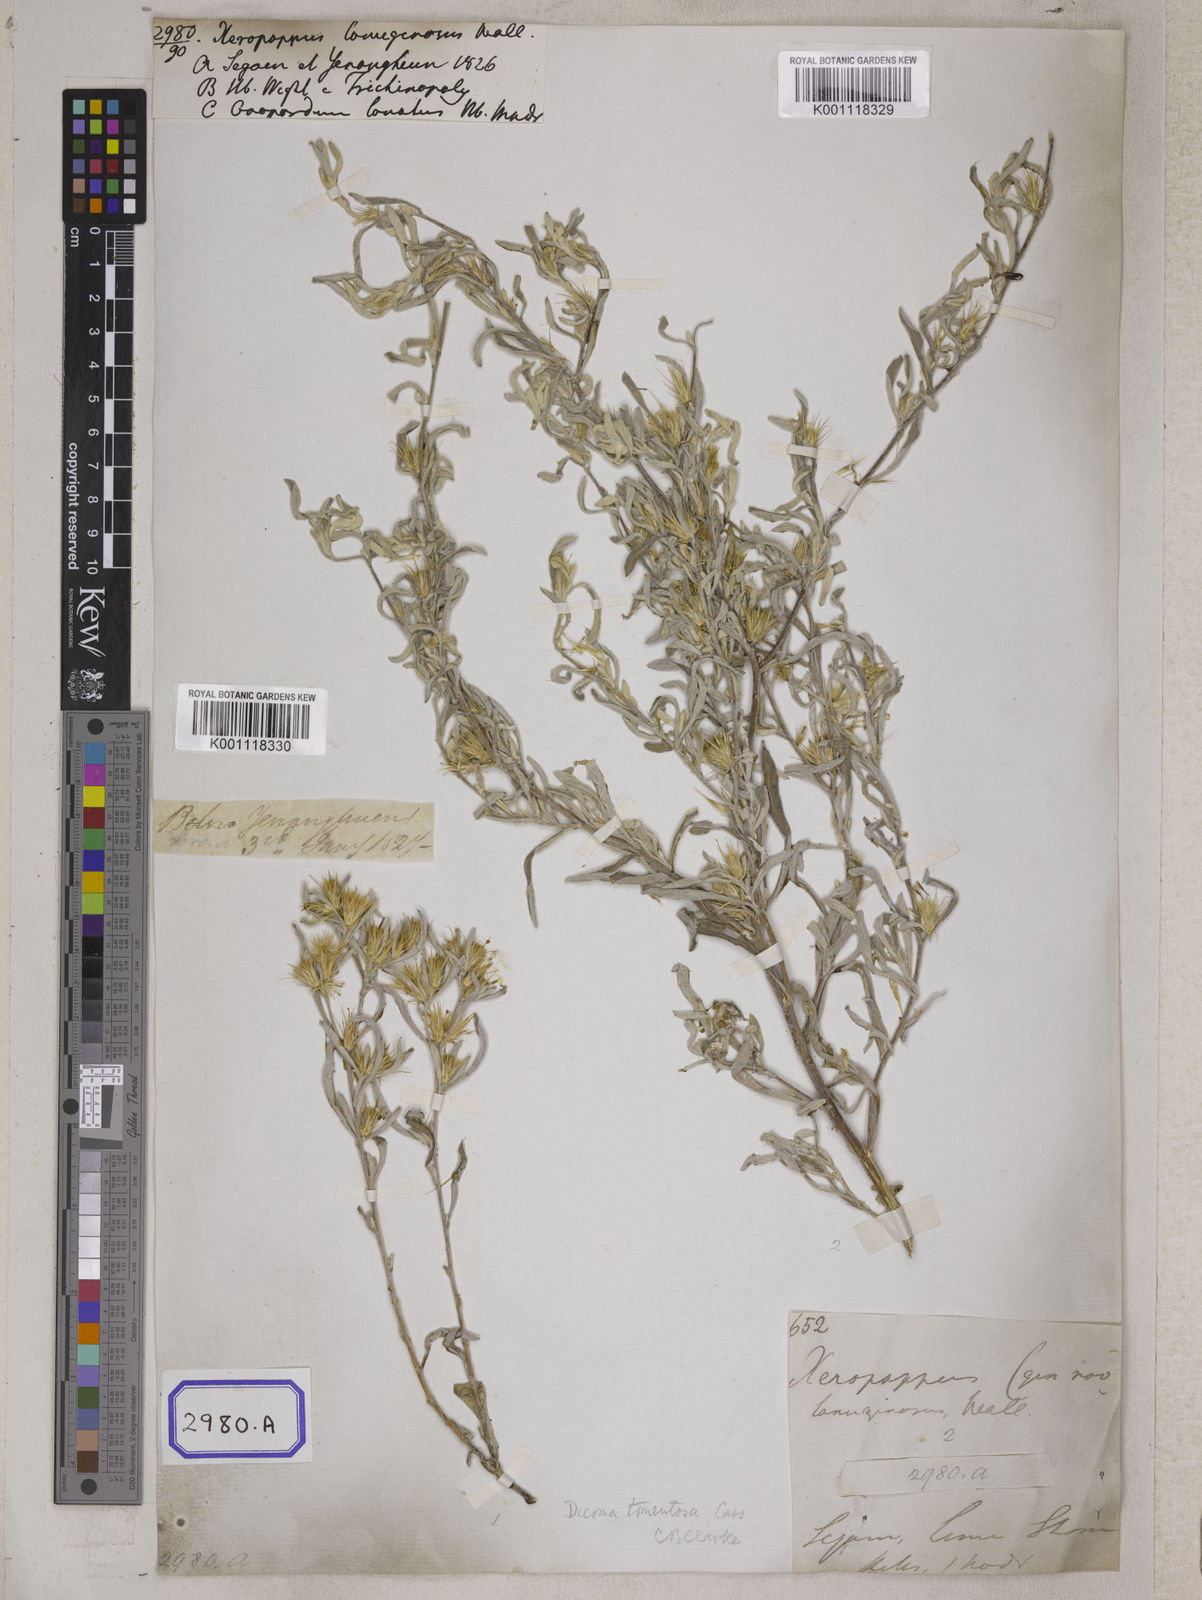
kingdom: Plantae
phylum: Tracheophyta
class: Magnoliopsida
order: Asterales
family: Asteraceae
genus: Dicoma
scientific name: Dicoma tomentosa
